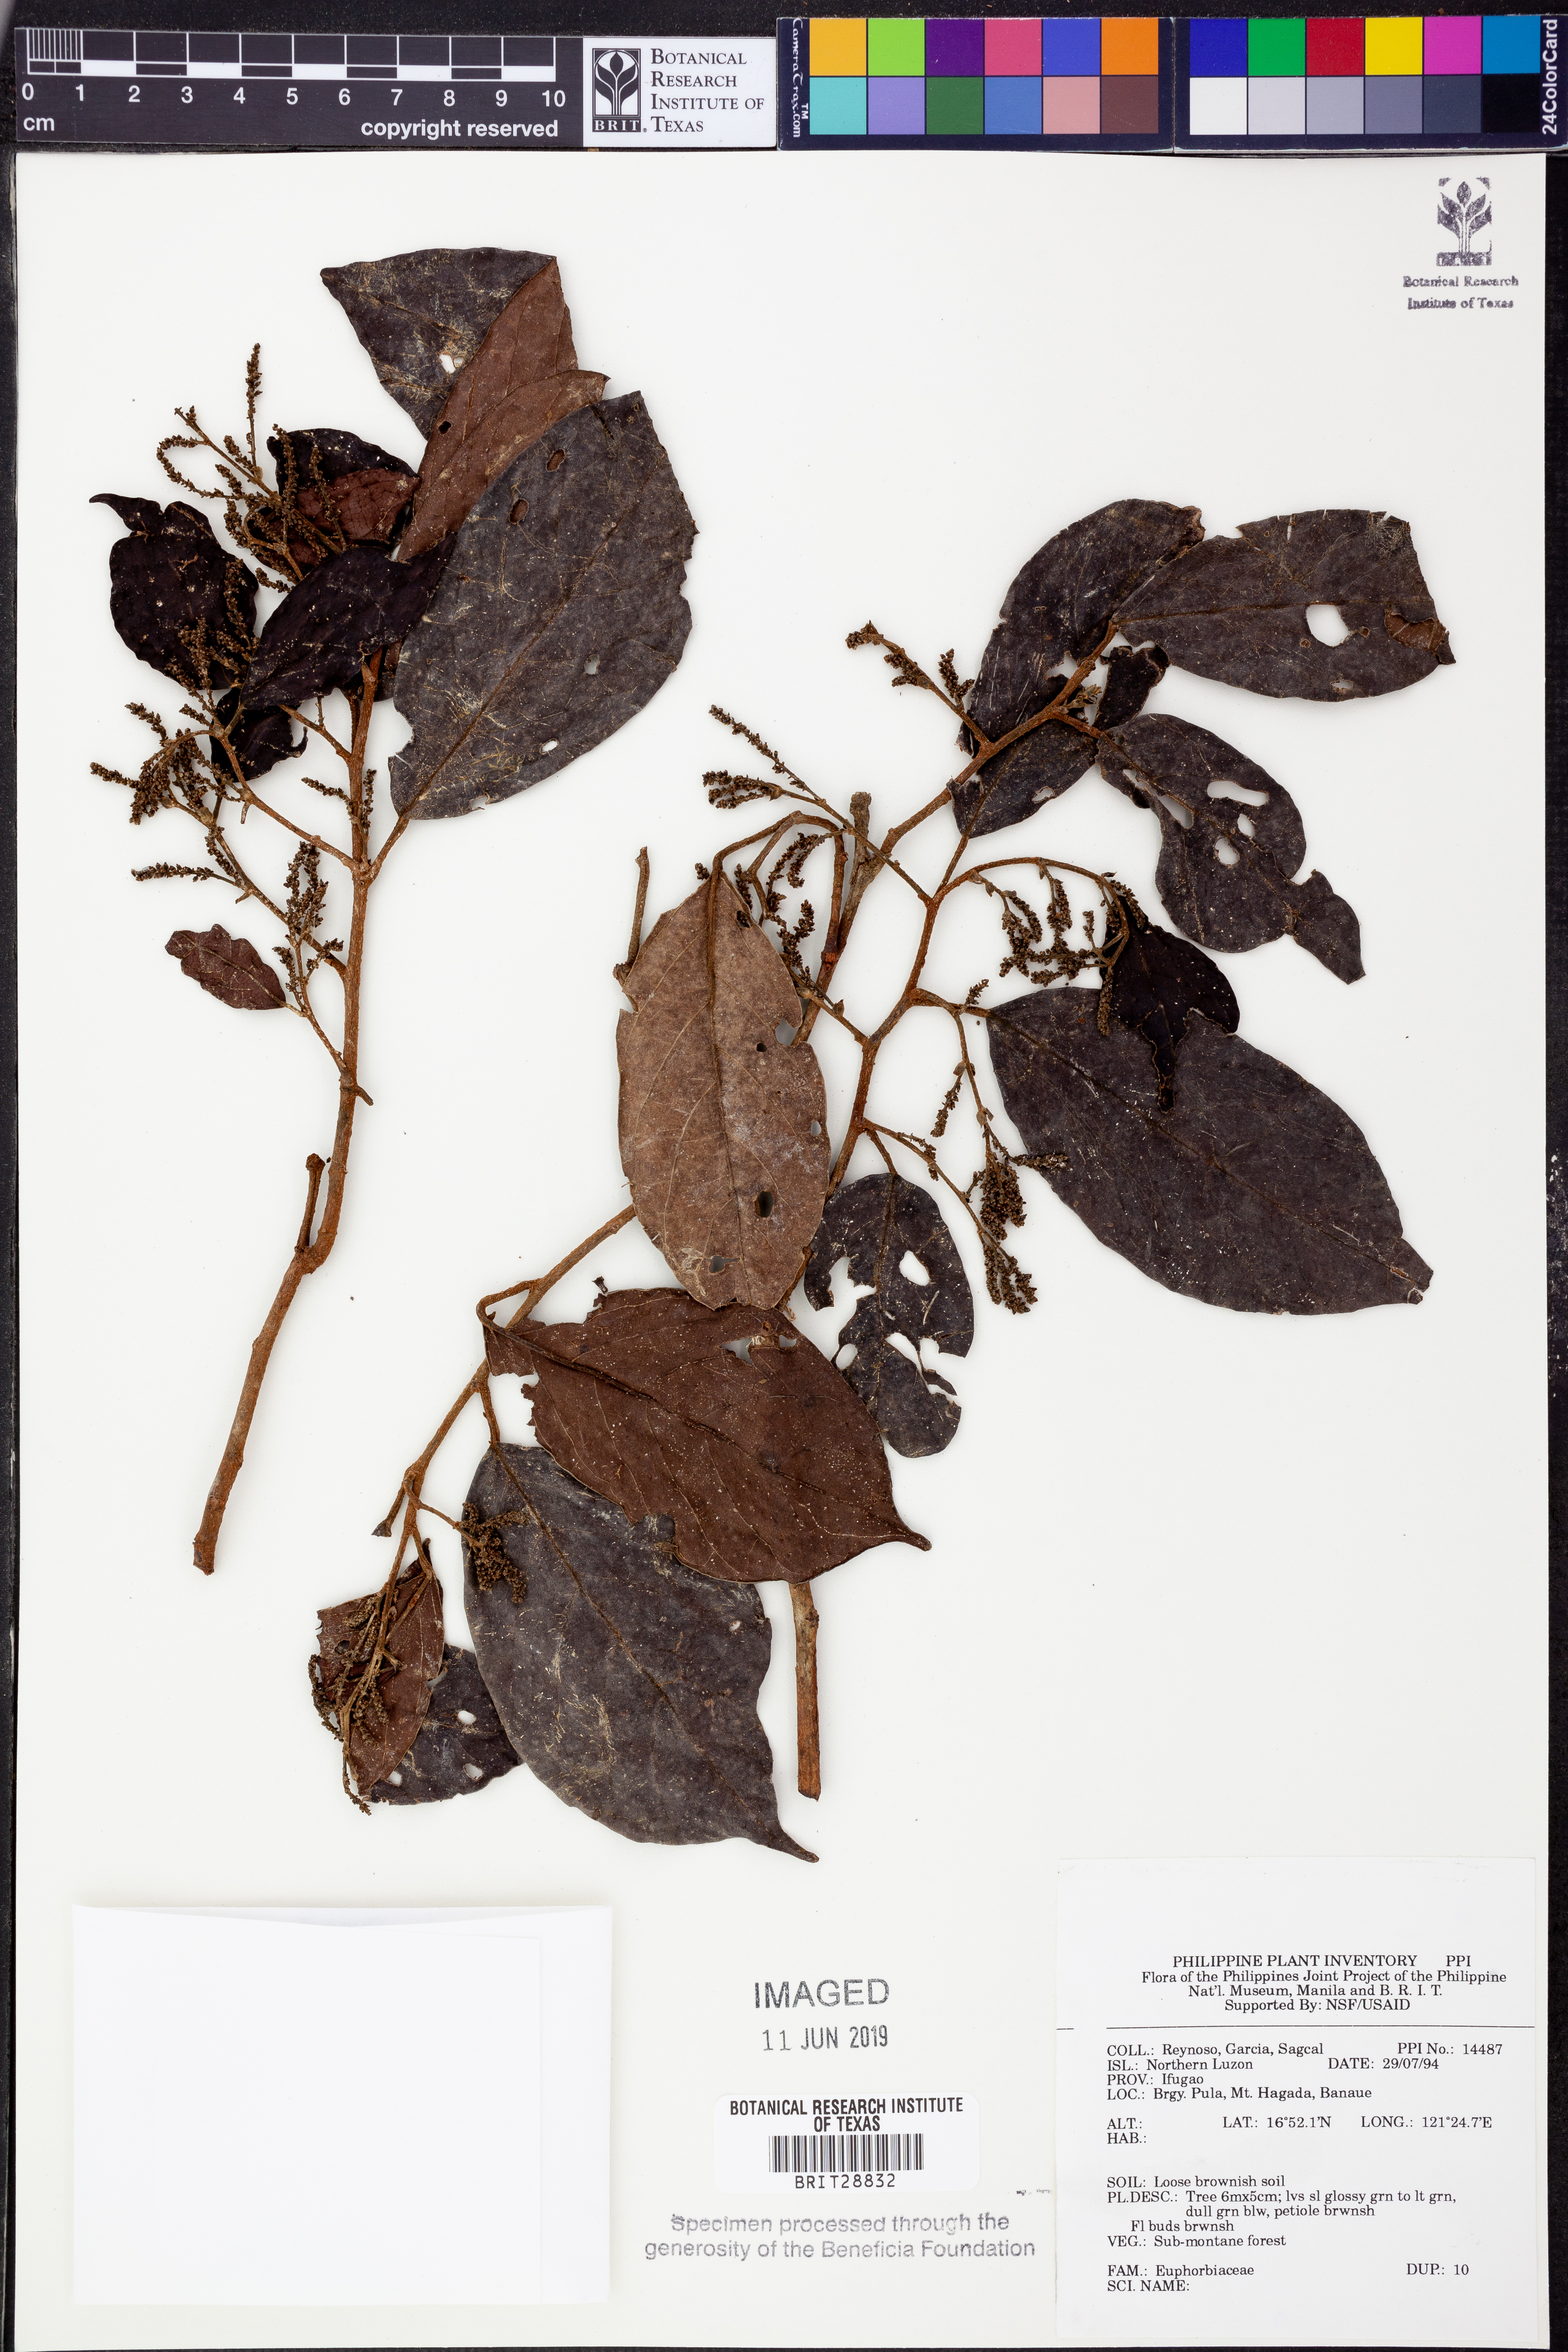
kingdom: Plantae
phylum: Tracheophyta
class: Magnoliopsida
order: Malpighiales
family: Euphorbiaceae
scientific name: Euphorbiaceae
